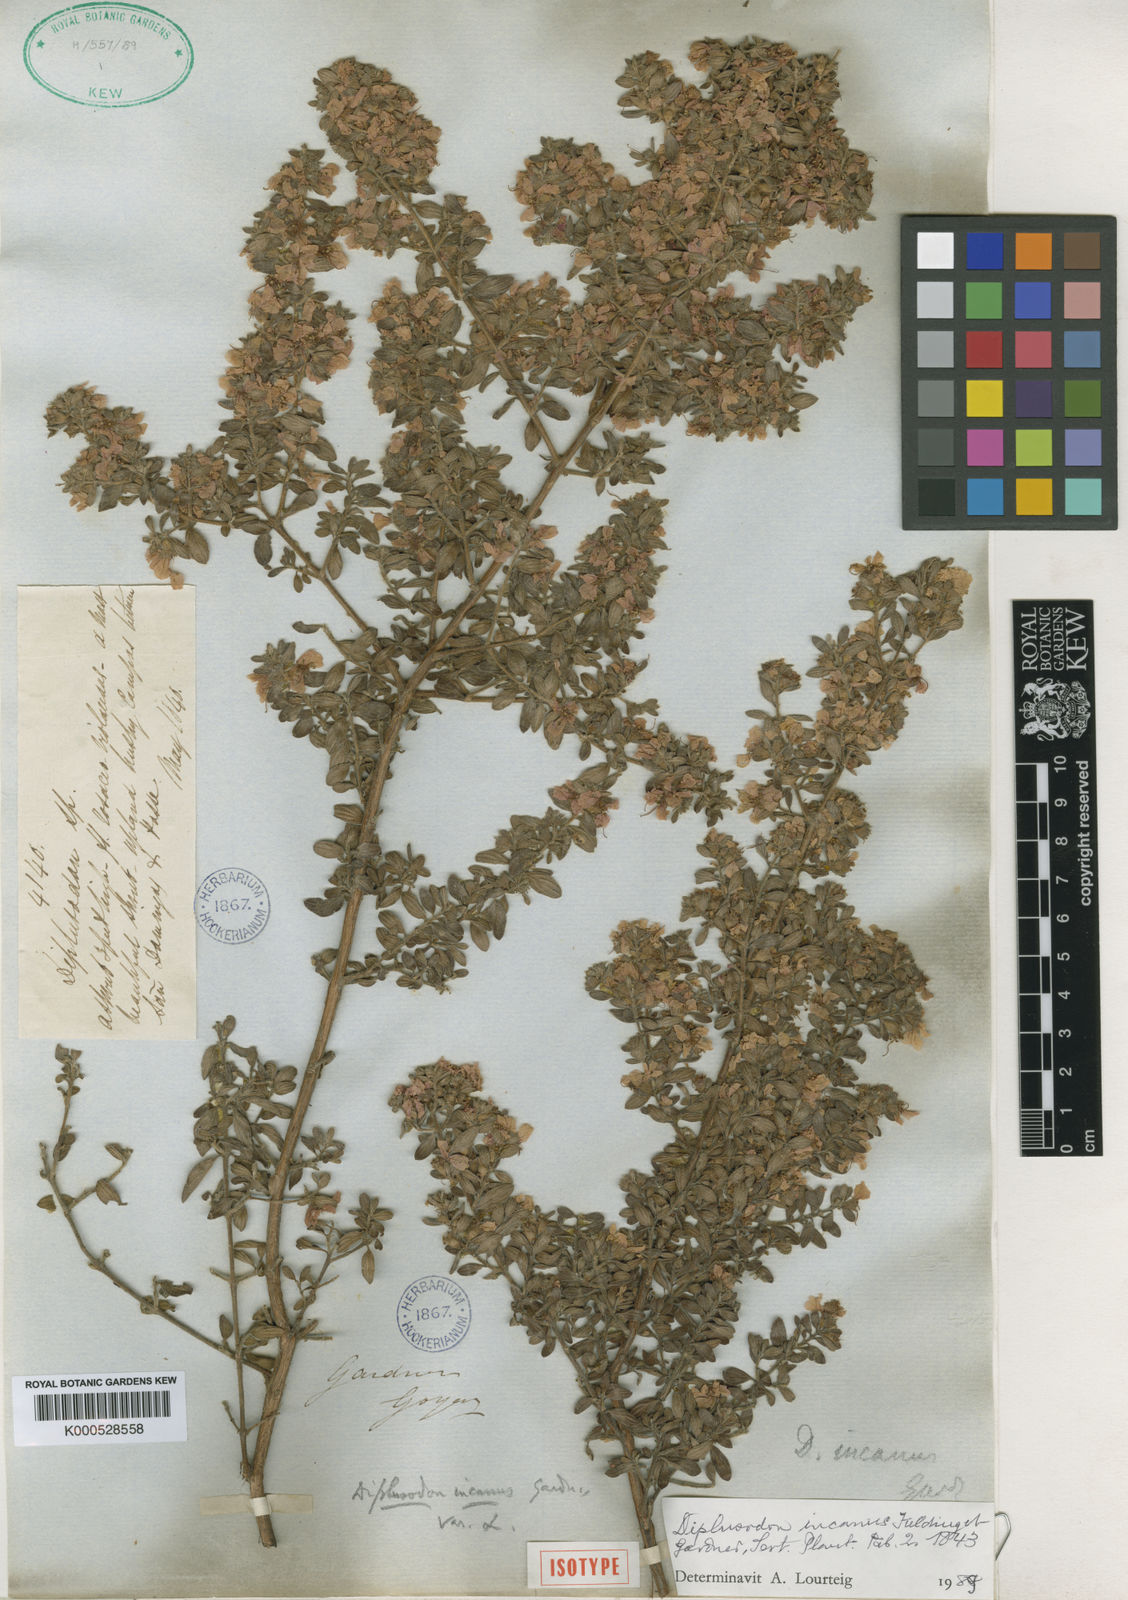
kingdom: Plantae
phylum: Tracheophyta
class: Magnoliopsida
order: Myrtales
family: Lythraceae
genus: Diplusodon
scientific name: Diplusodon incanus
